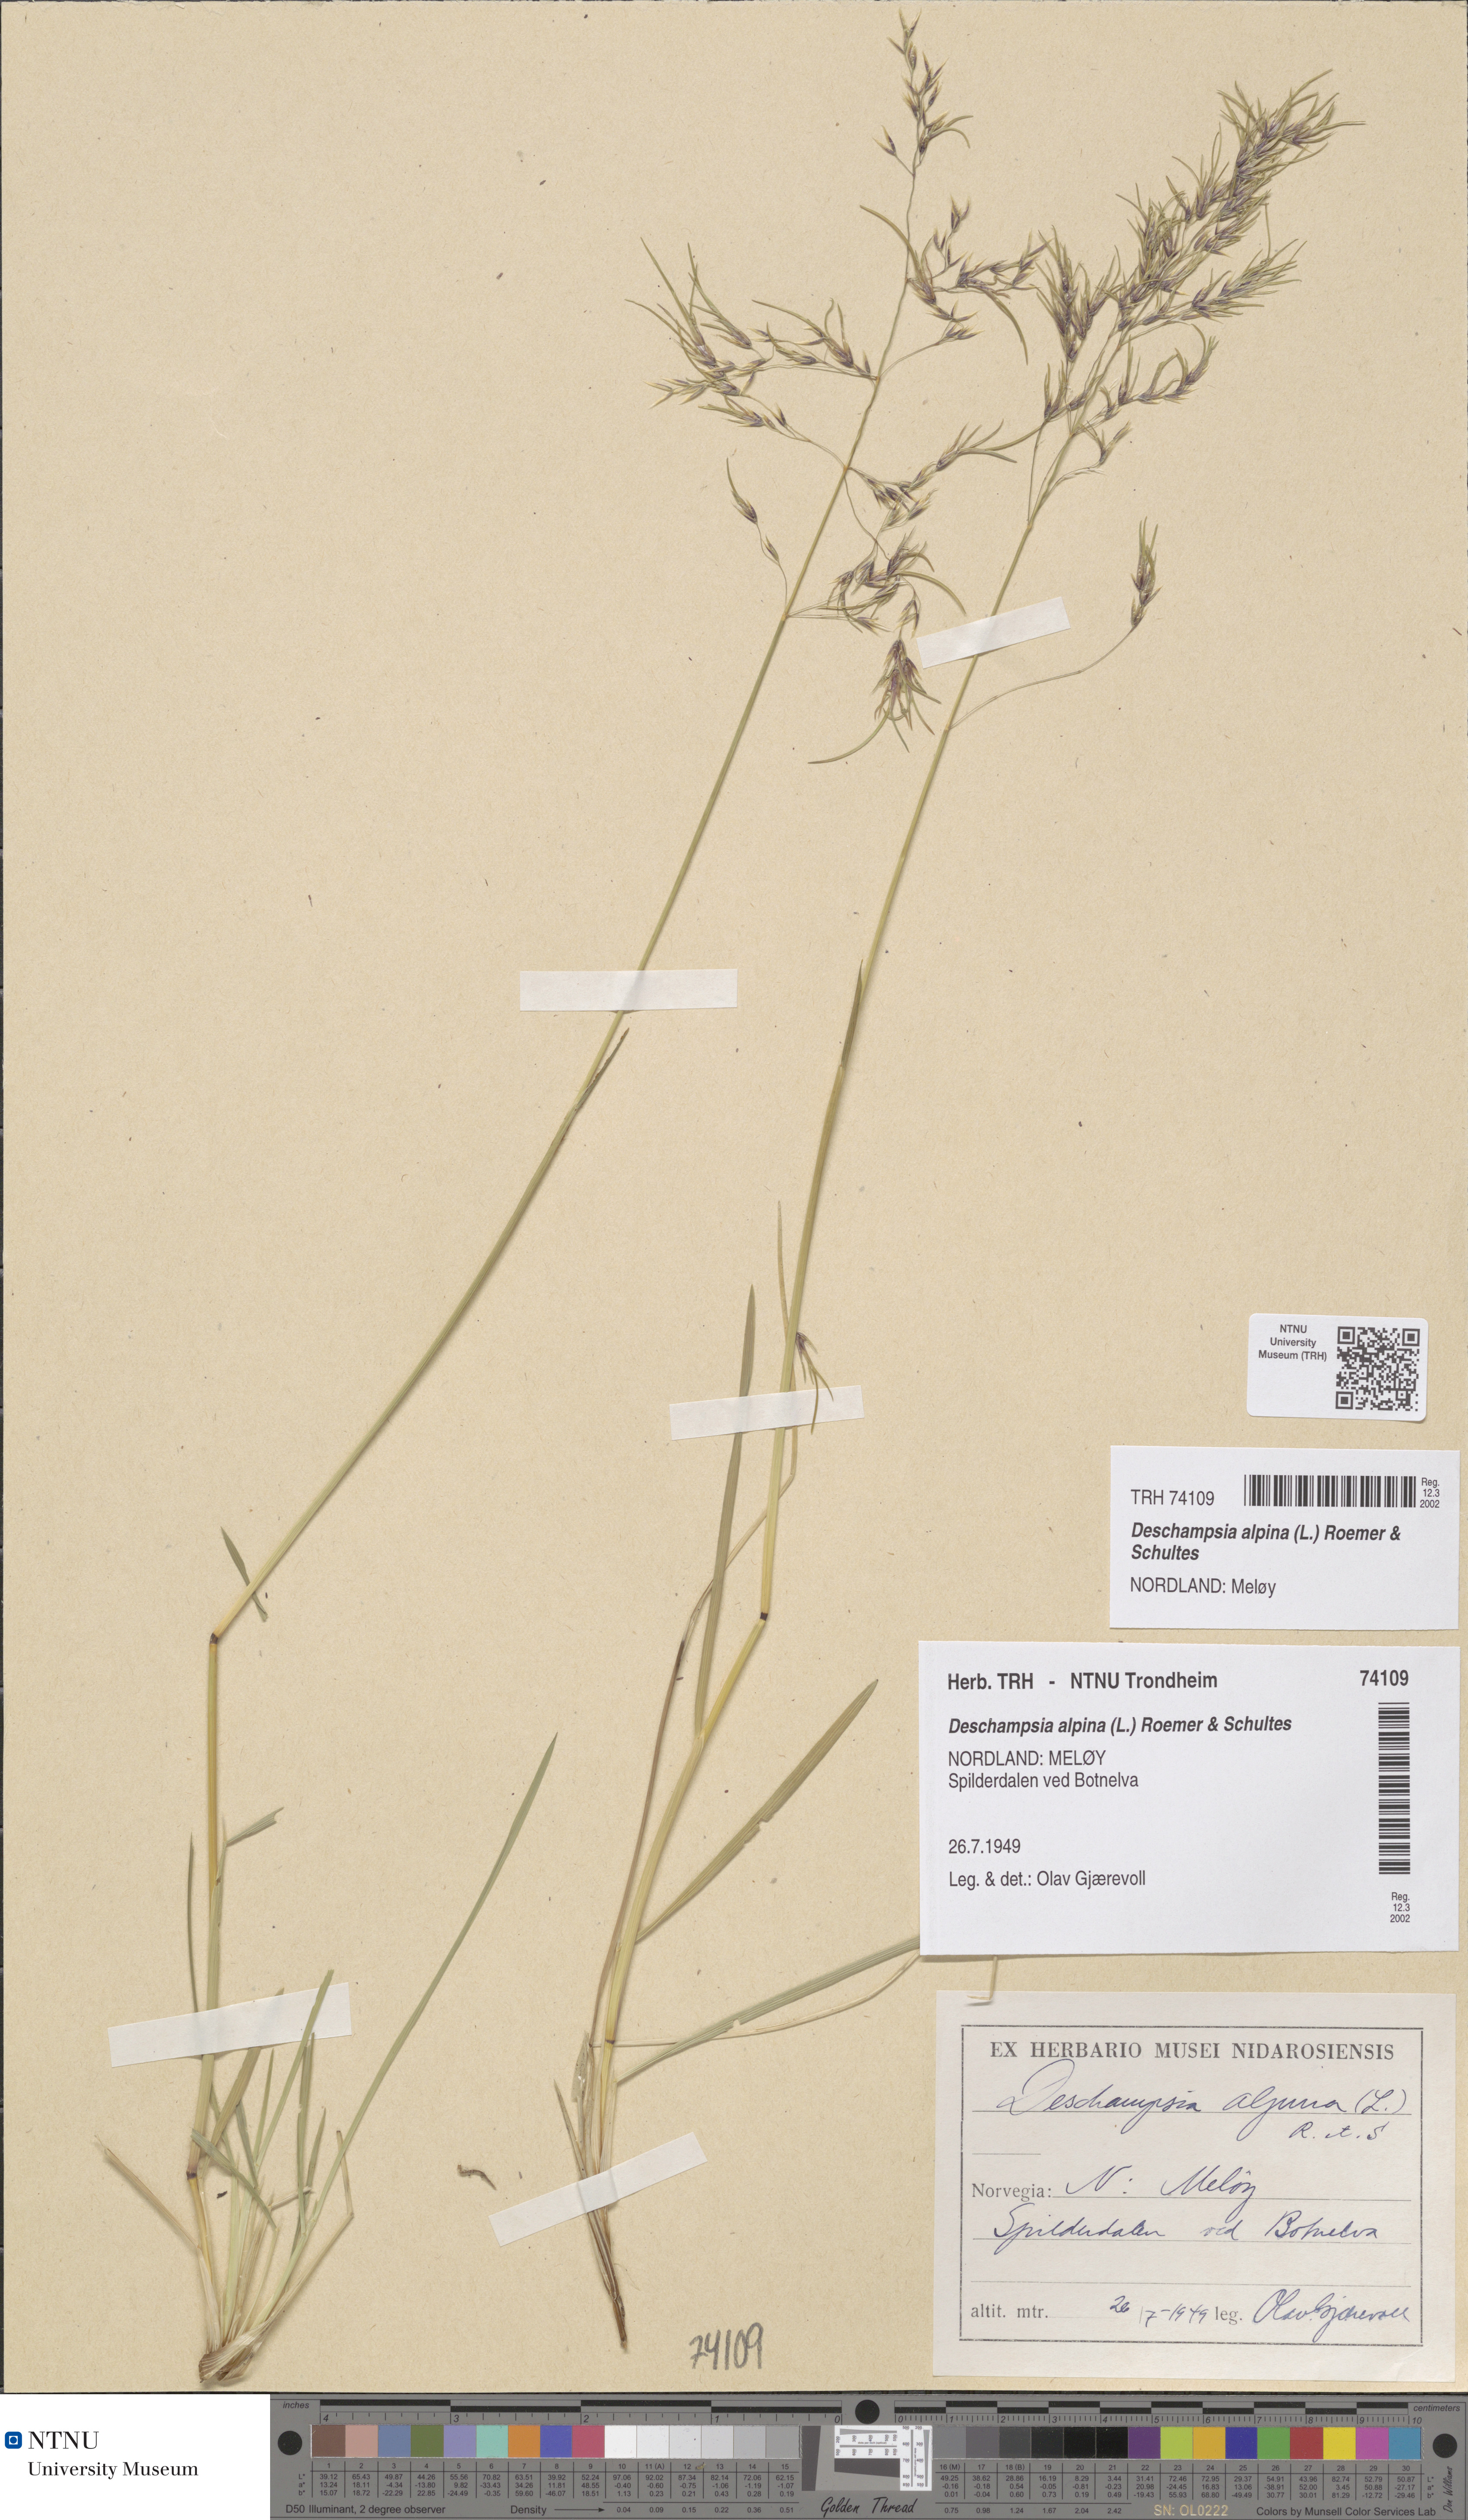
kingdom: Plantae
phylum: Tracheophyta
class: Liliopsida
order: Poales
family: Poaceae
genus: Deschampsia
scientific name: Deschampsia cespitosa
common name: Tufted hair-grass
